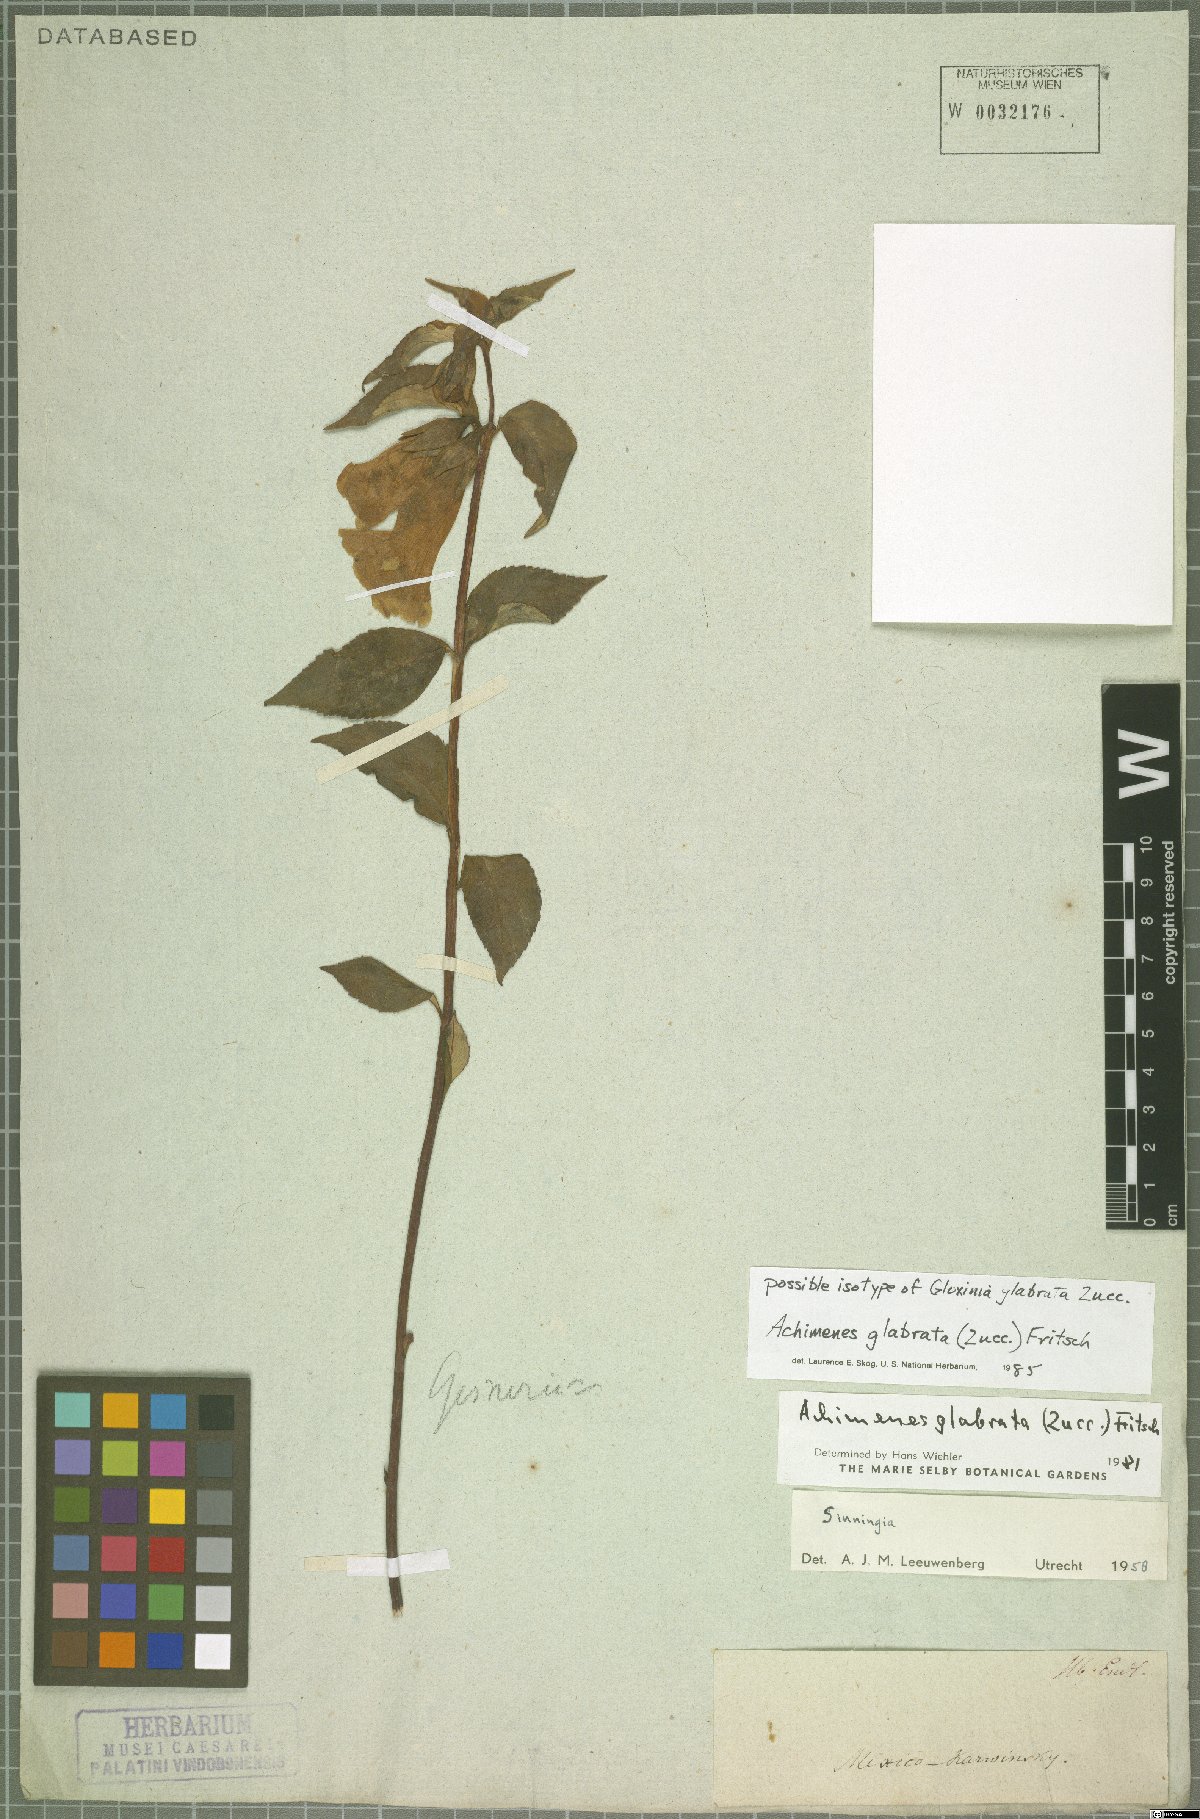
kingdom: Plantae
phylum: Tracheophyta
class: Magnoliopsida
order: Lamiales
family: Gesneriaceae
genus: Achimenes
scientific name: Achimenes glabrata
